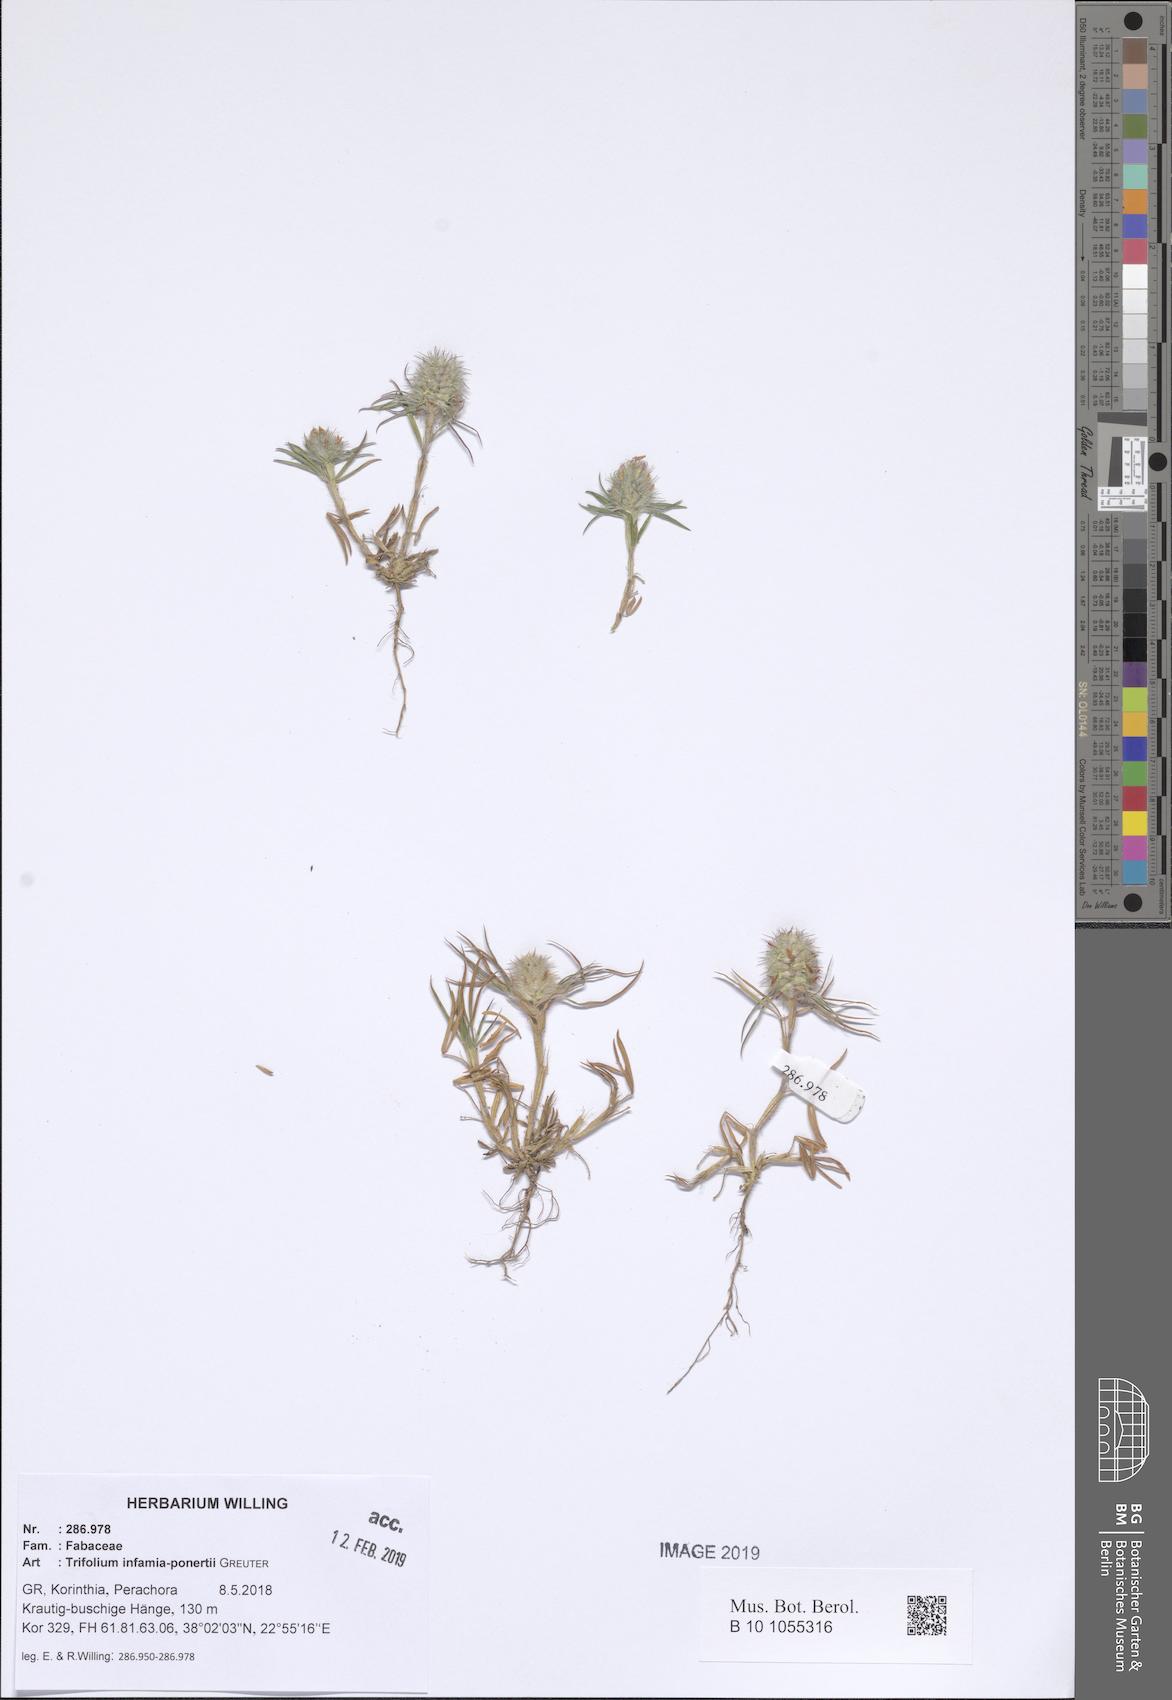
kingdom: Plantae
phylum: Tracheophyta
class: Magnoliopsida
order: Fabales
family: Fabaceae
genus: Trifolium
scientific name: Trifolium infamia-ponertii
